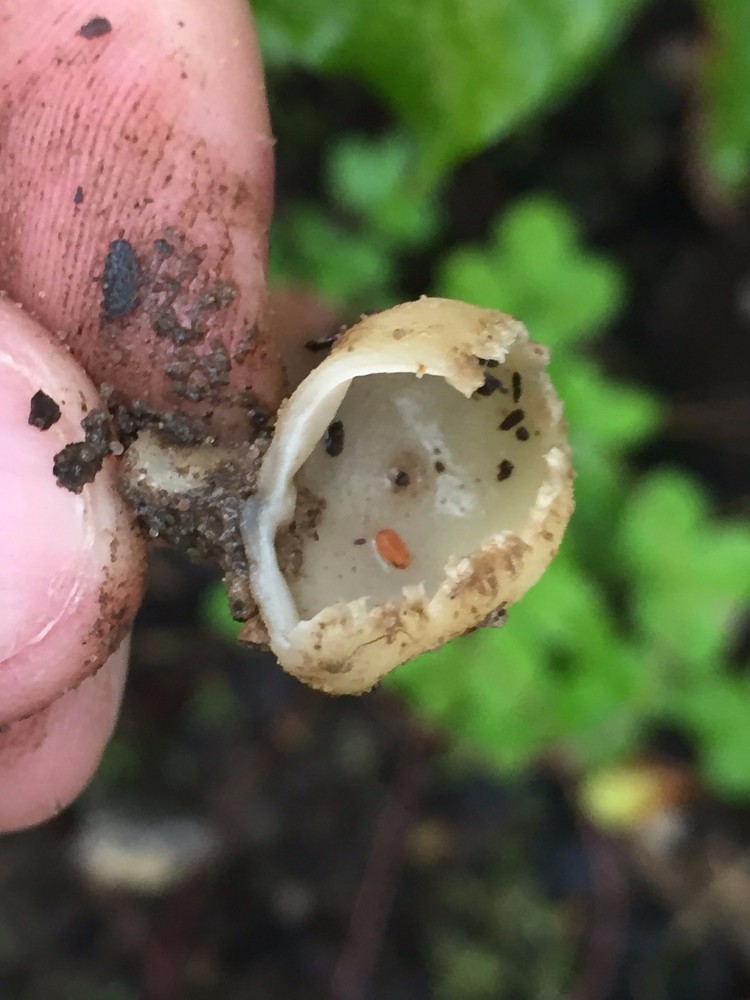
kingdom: Fungi
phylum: Ascomycota
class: Pezizomycetes
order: Pezizales
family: Pyronemataceae
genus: Tarzetta
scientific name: Tarzetta cupularis
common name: gulbrun pokalbæger
